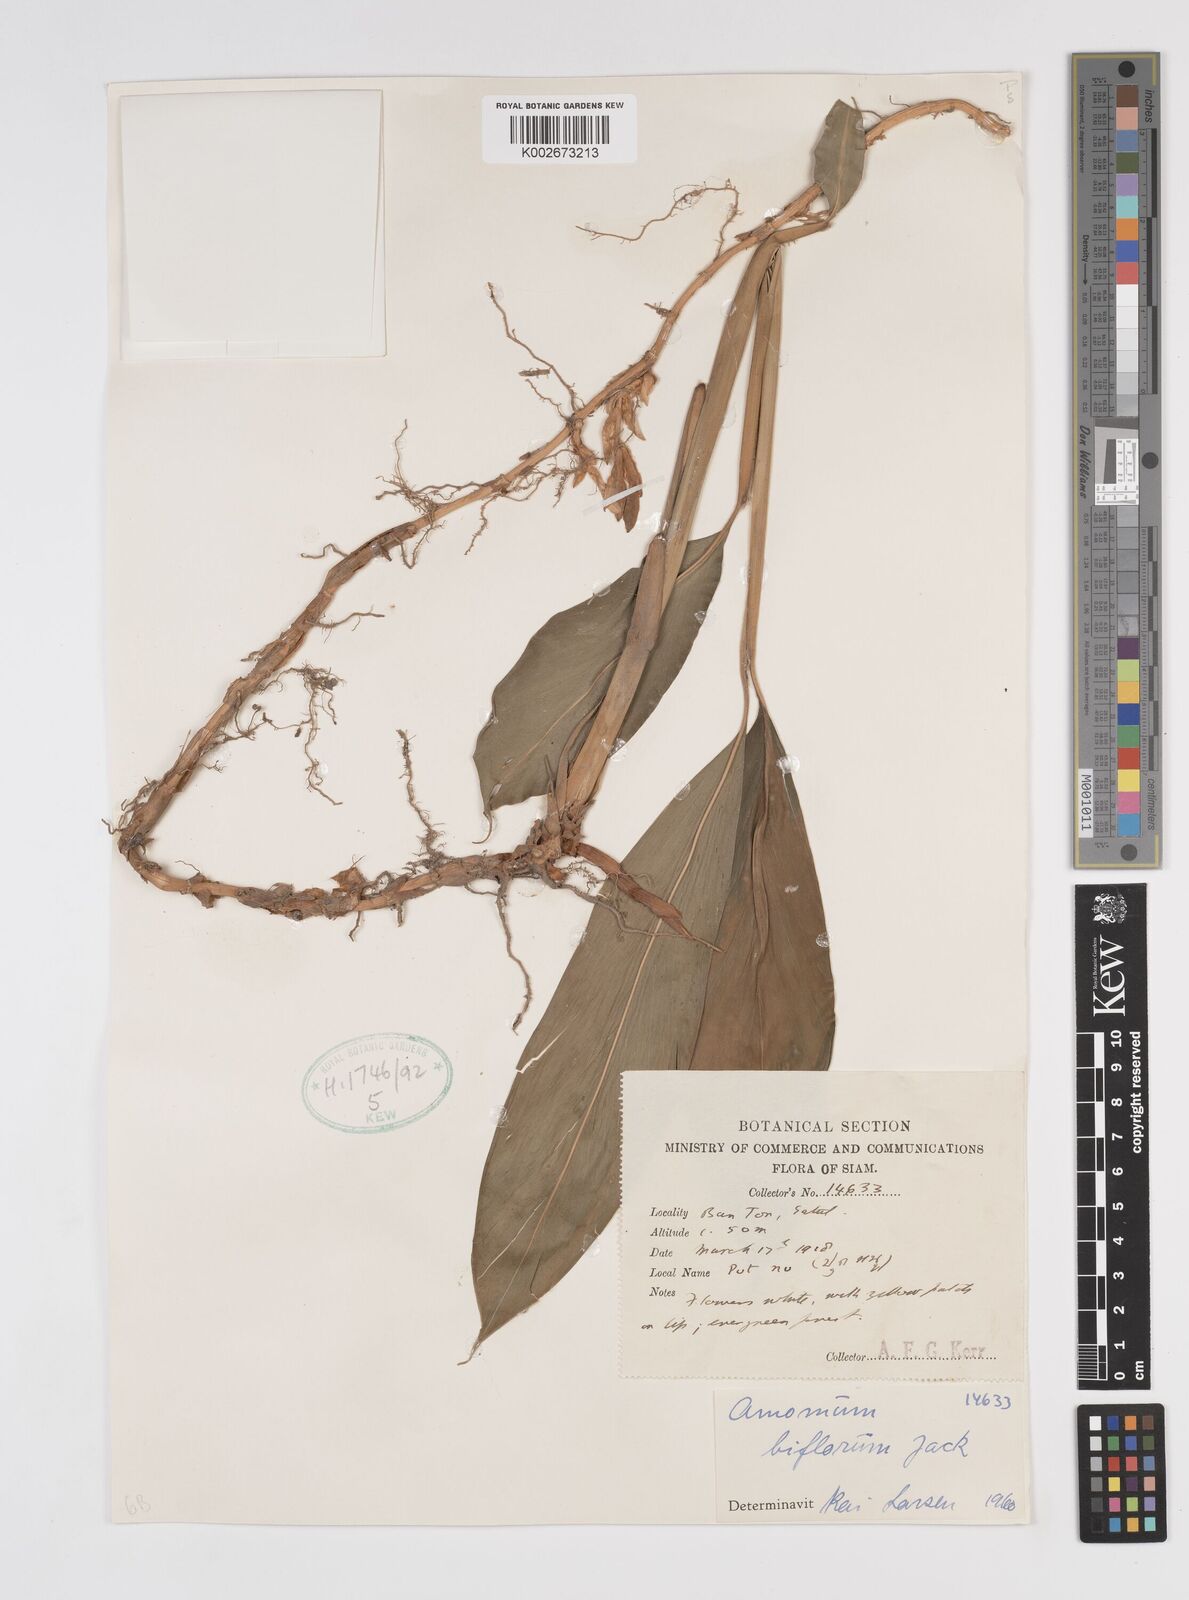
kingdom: Plantae
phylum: Tracheophyta
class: Liliopsida
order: Zingiberales
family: Zingiberaceae
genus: Wurfbainia
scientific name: Wurfbainia biflora
